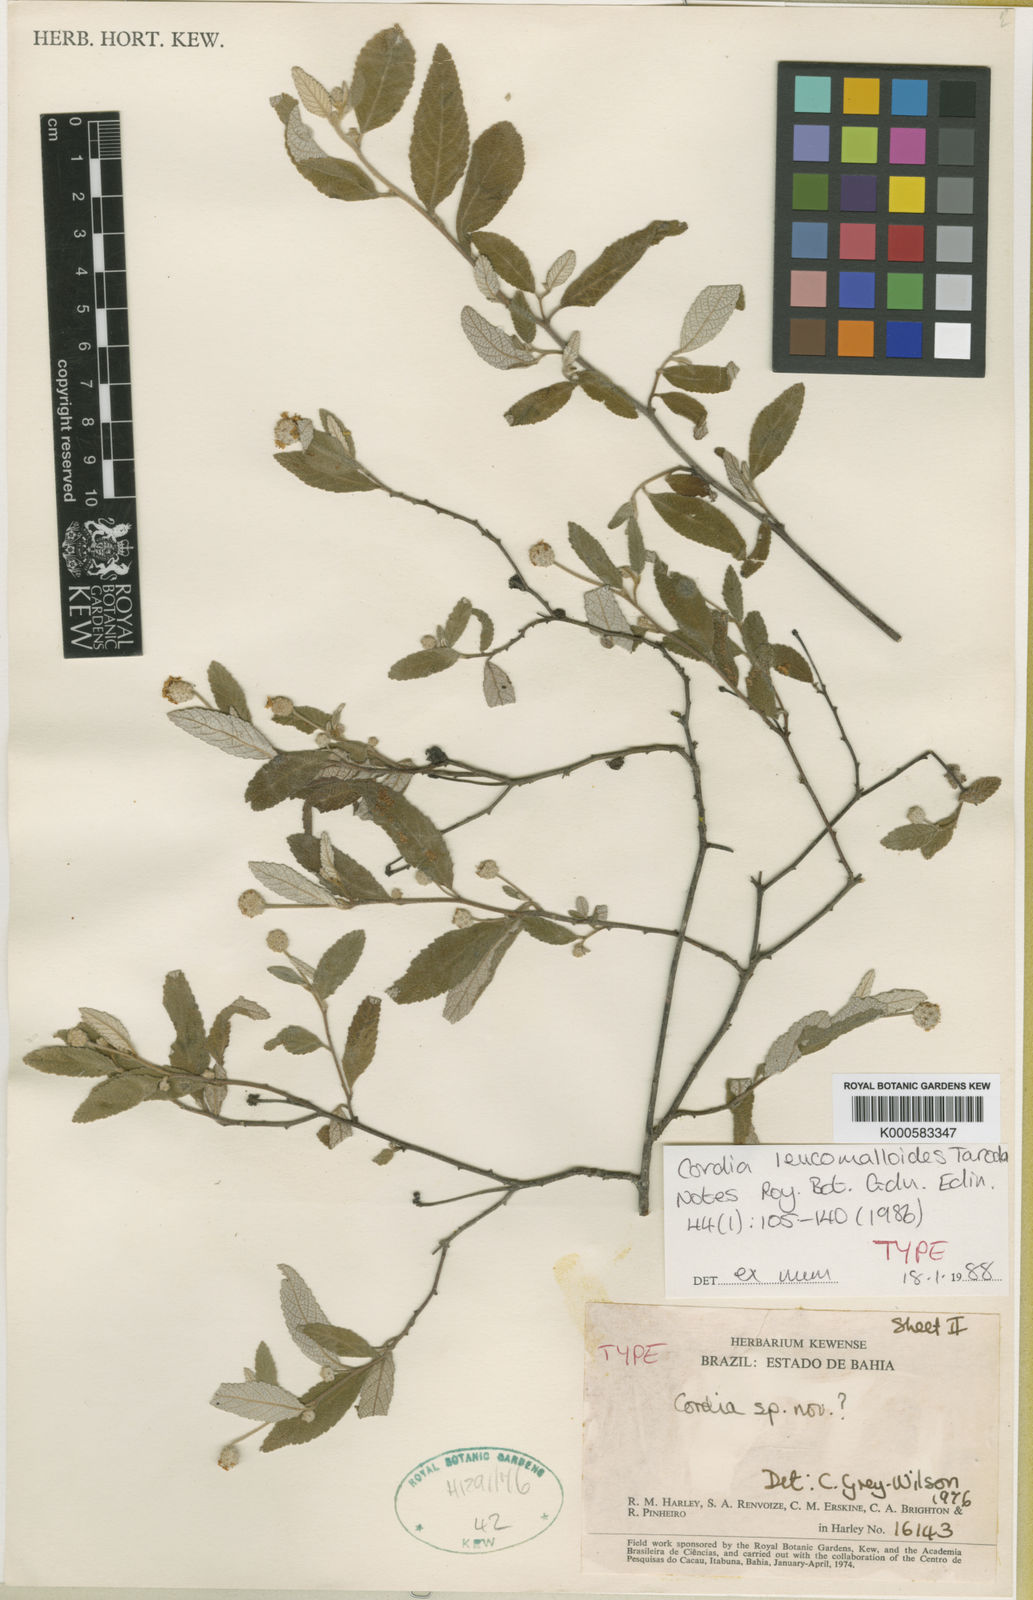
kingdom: Plantae
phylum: Tracheophyta
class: Magnoliopsida
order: Boraginales
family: Cordiaceae
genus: Varronia
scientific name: Varronia leucomalloides
